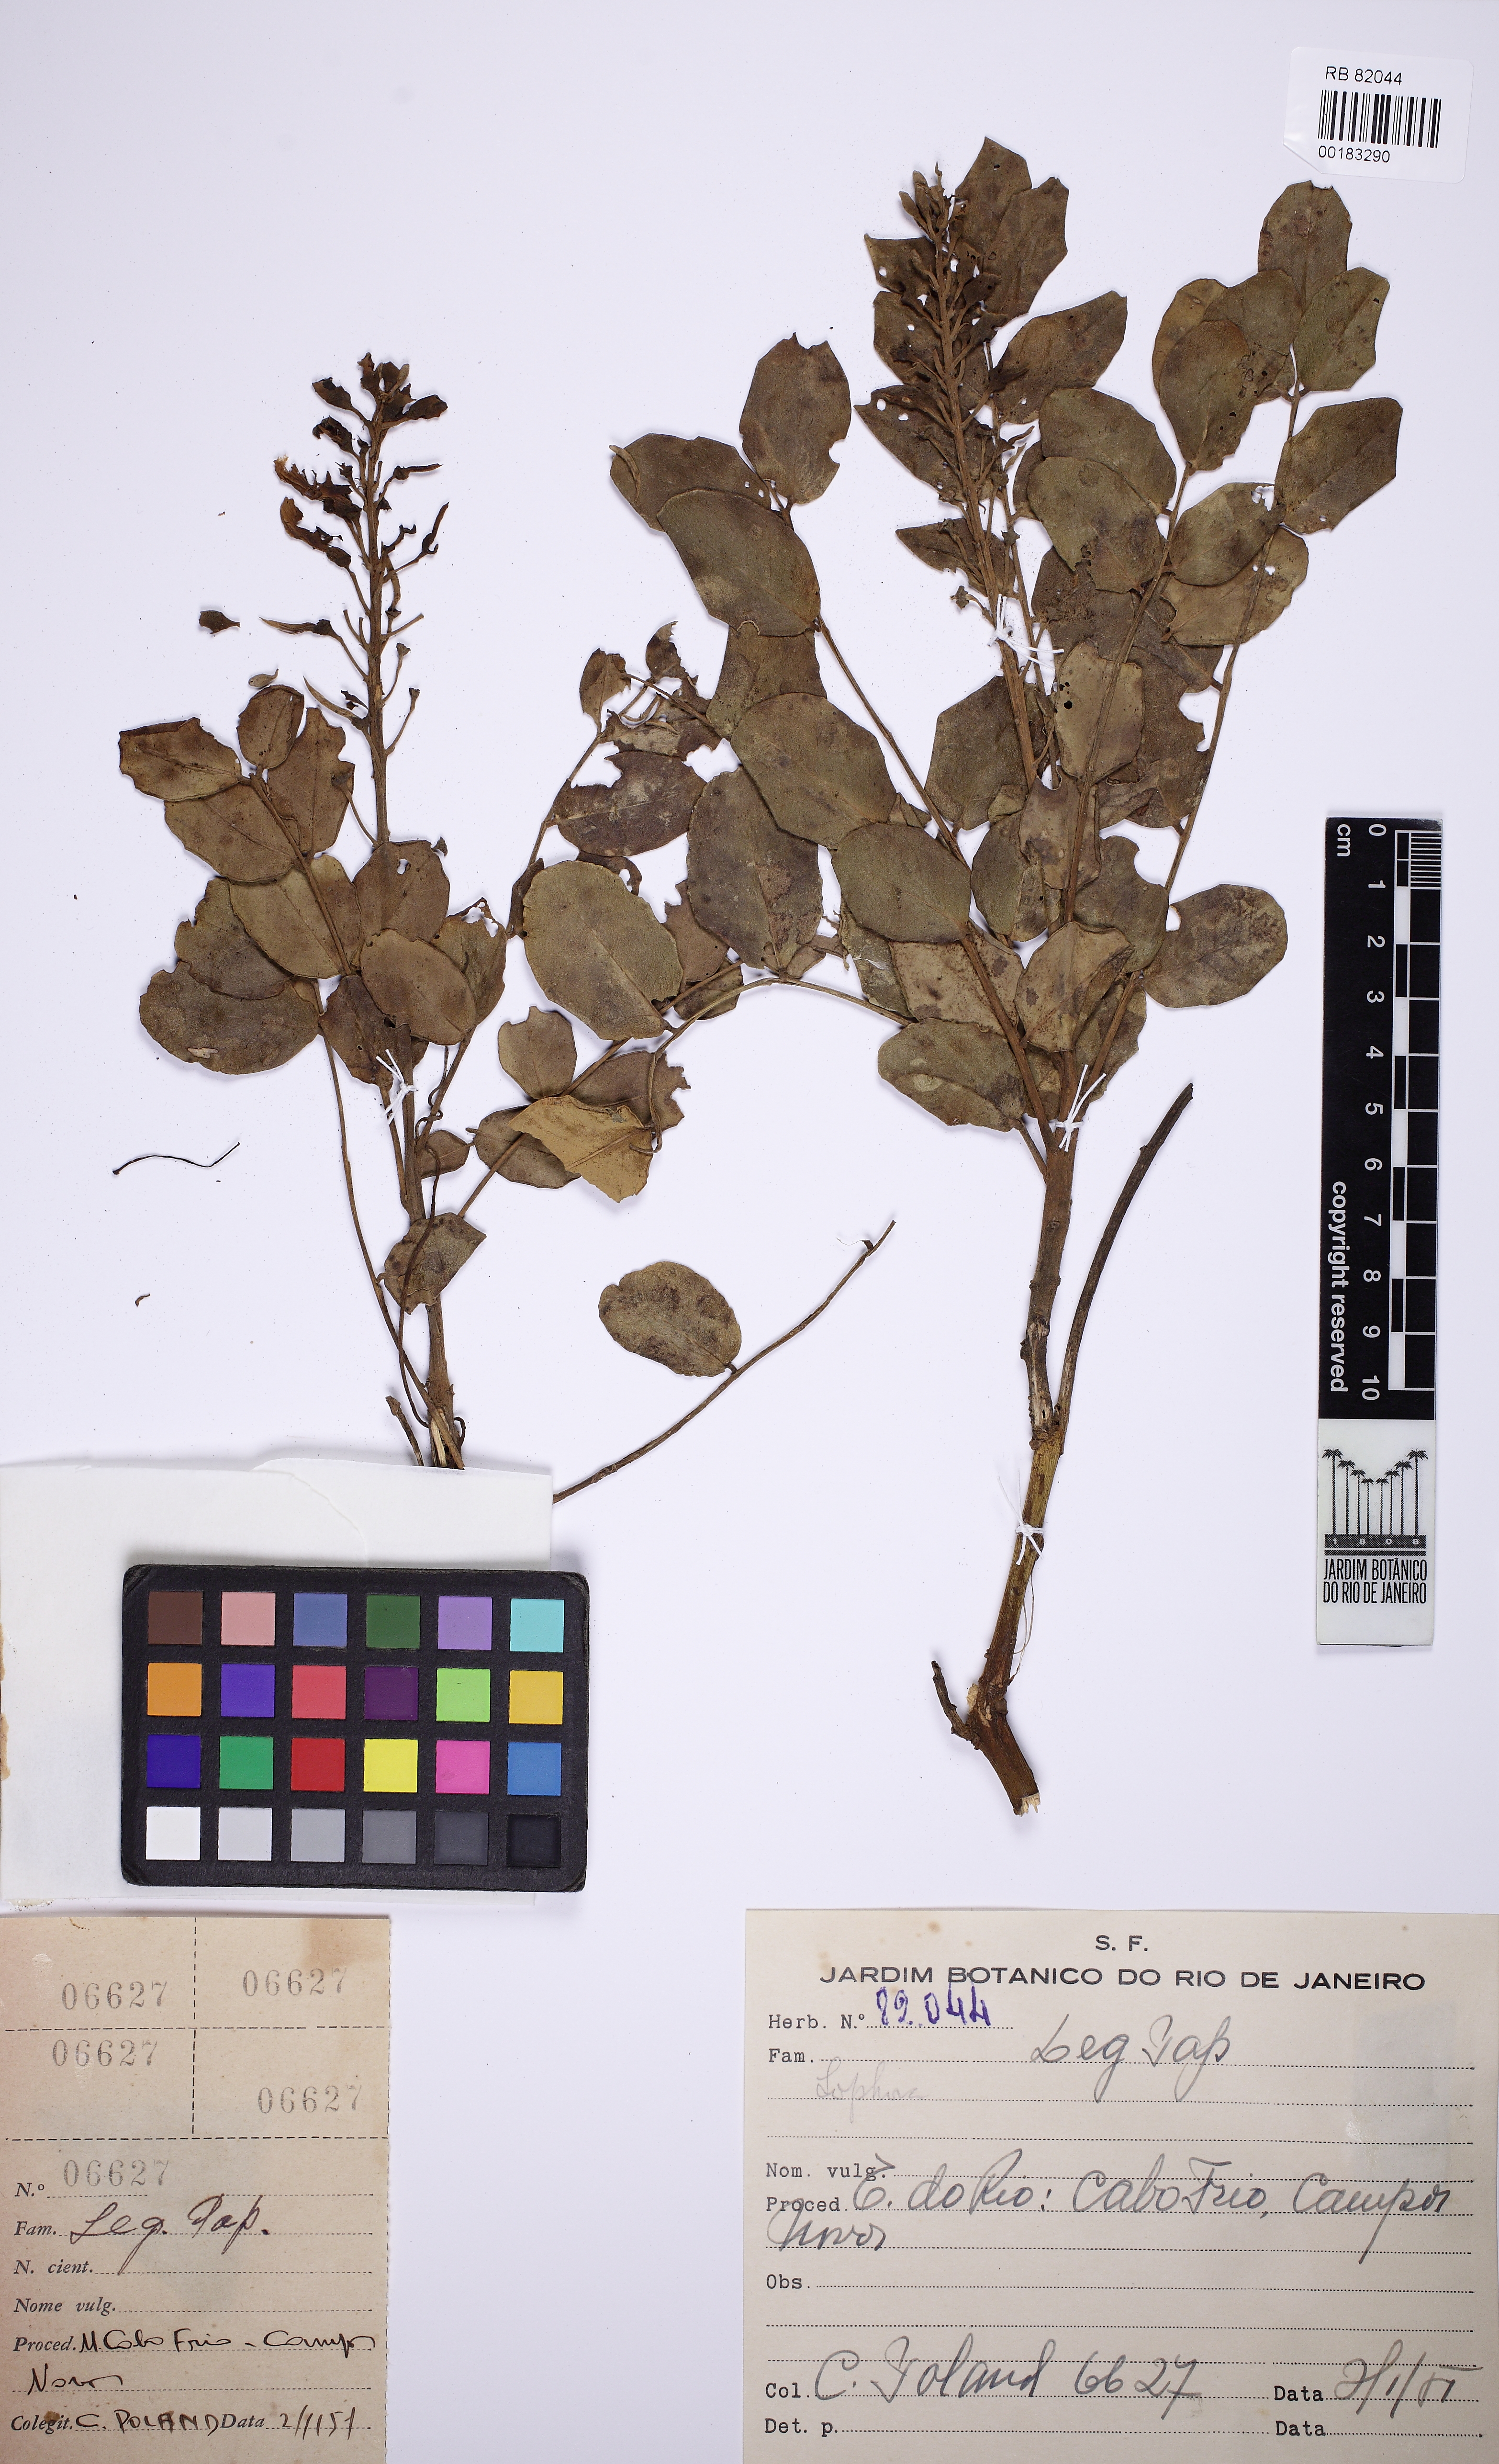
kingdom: Plantae
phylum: Tracheophyta
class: Magnoliopsida
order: Fabales
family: Fabaceae
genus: Sophora
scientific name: Sophora
